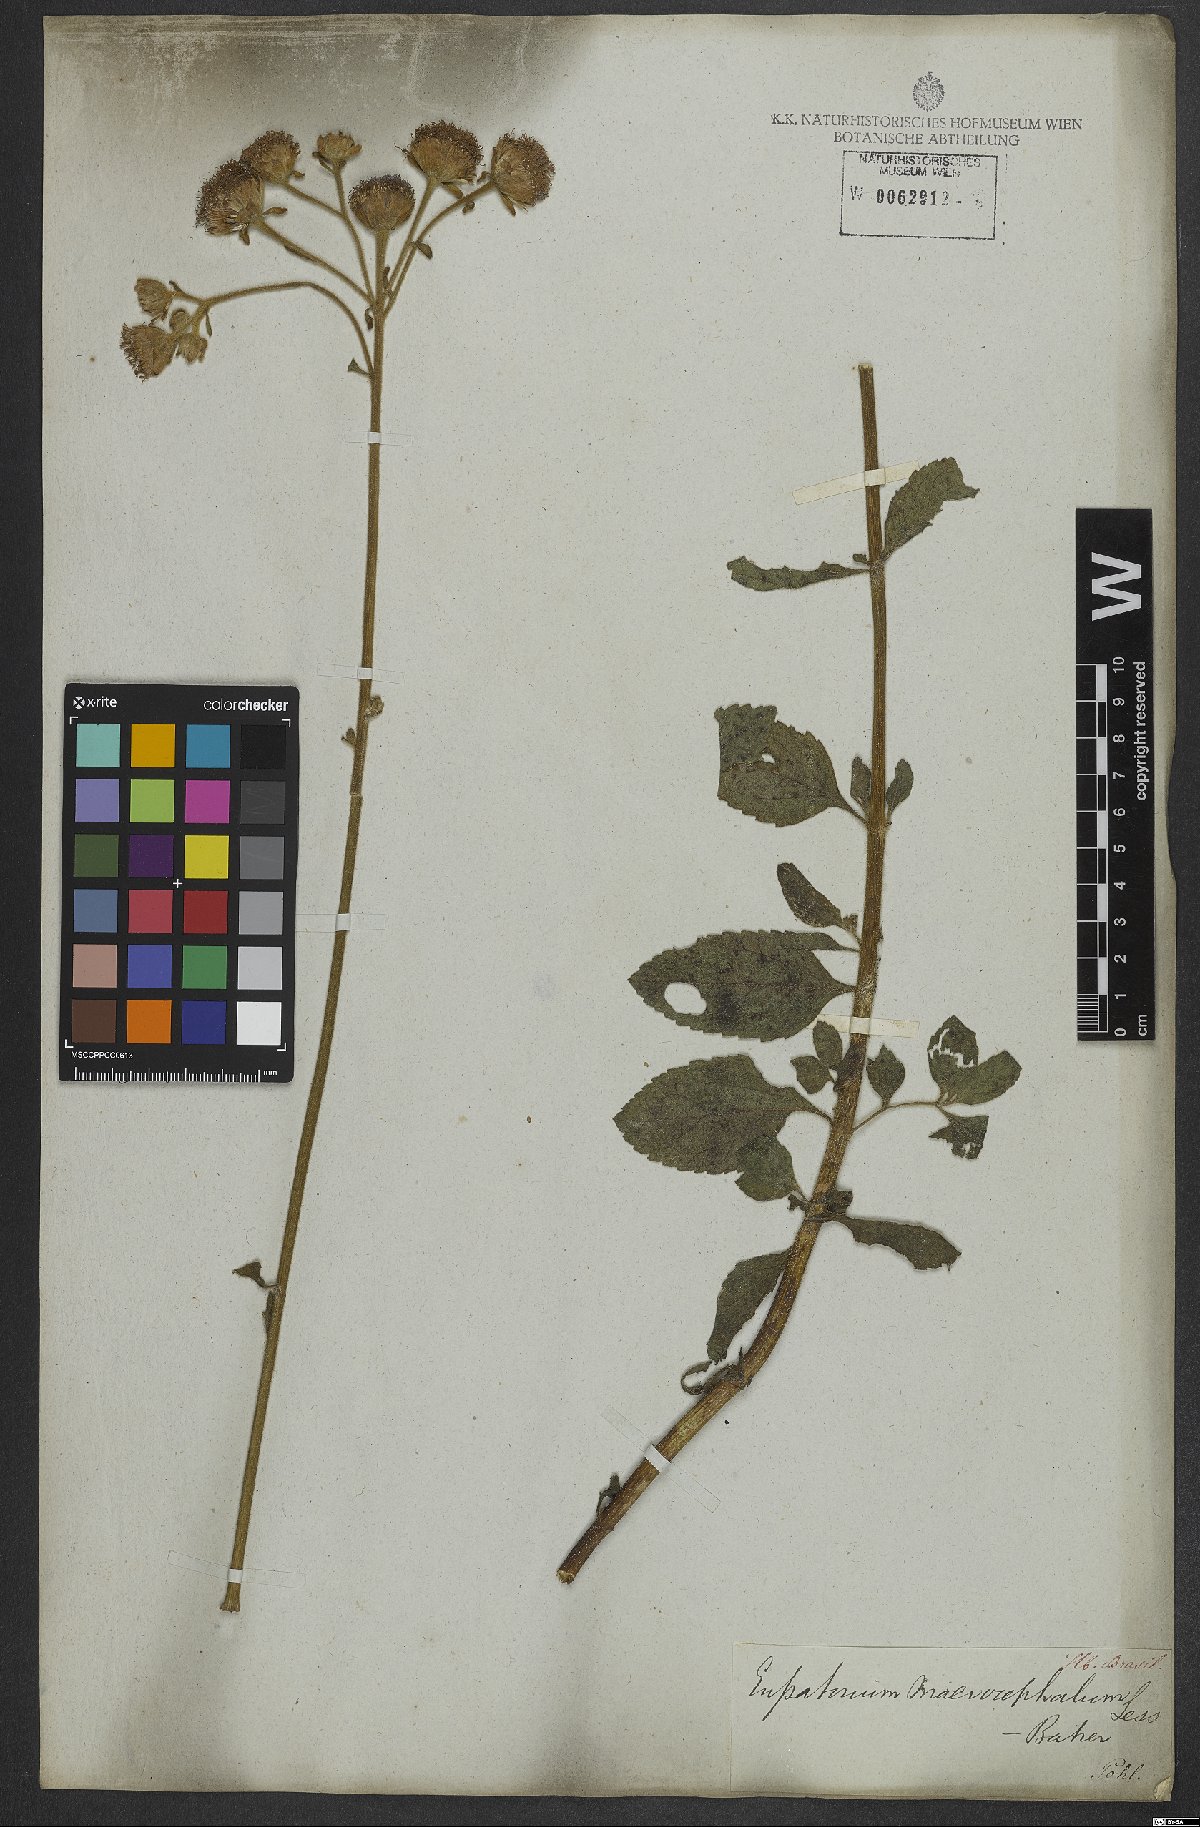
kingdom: Plantae
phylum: Tracheophyta
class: Magnoliopsida
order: Asterales
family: Asteraceae
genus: Campuloclinium
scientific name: Campuloclinium macrocephalum
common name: Pompomweed
